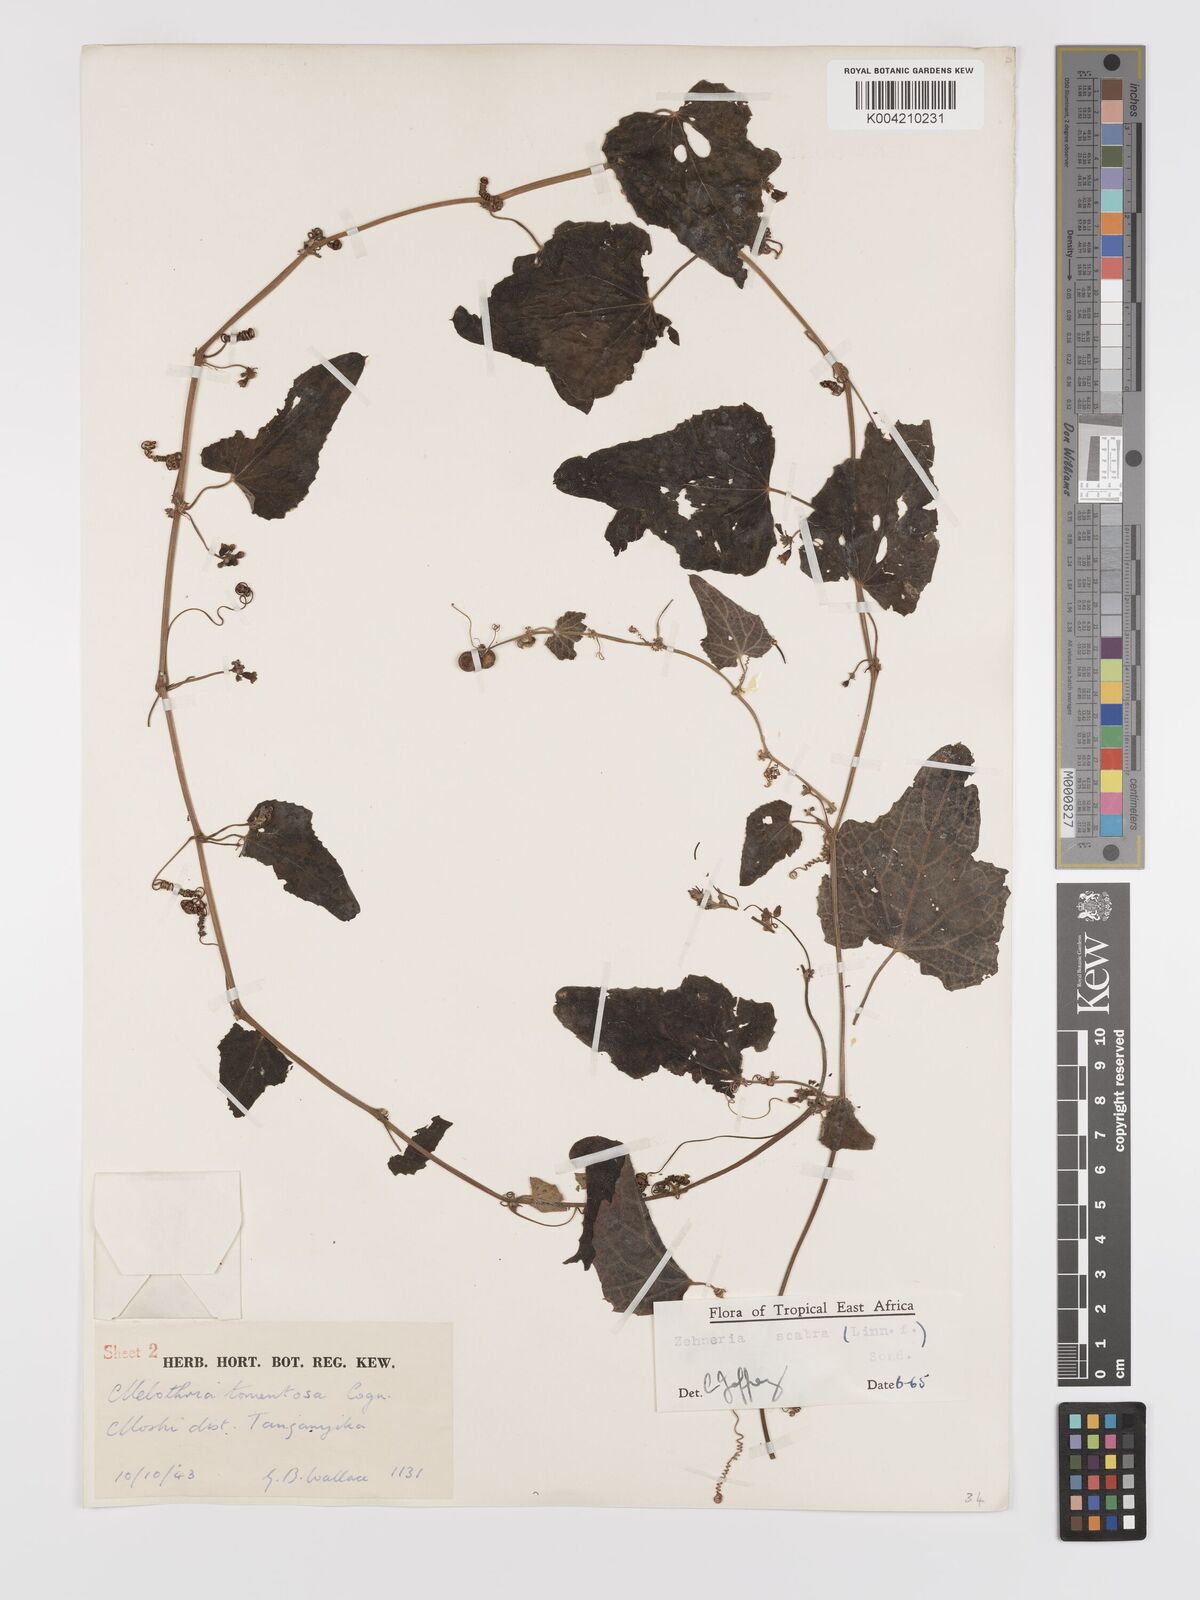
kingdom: Plantae
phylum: Tracheophyta
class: Magnoliopsida
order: Cucurbitales
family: Cucurbitaceae
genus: Zehneria
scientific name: Zehneria scabra
